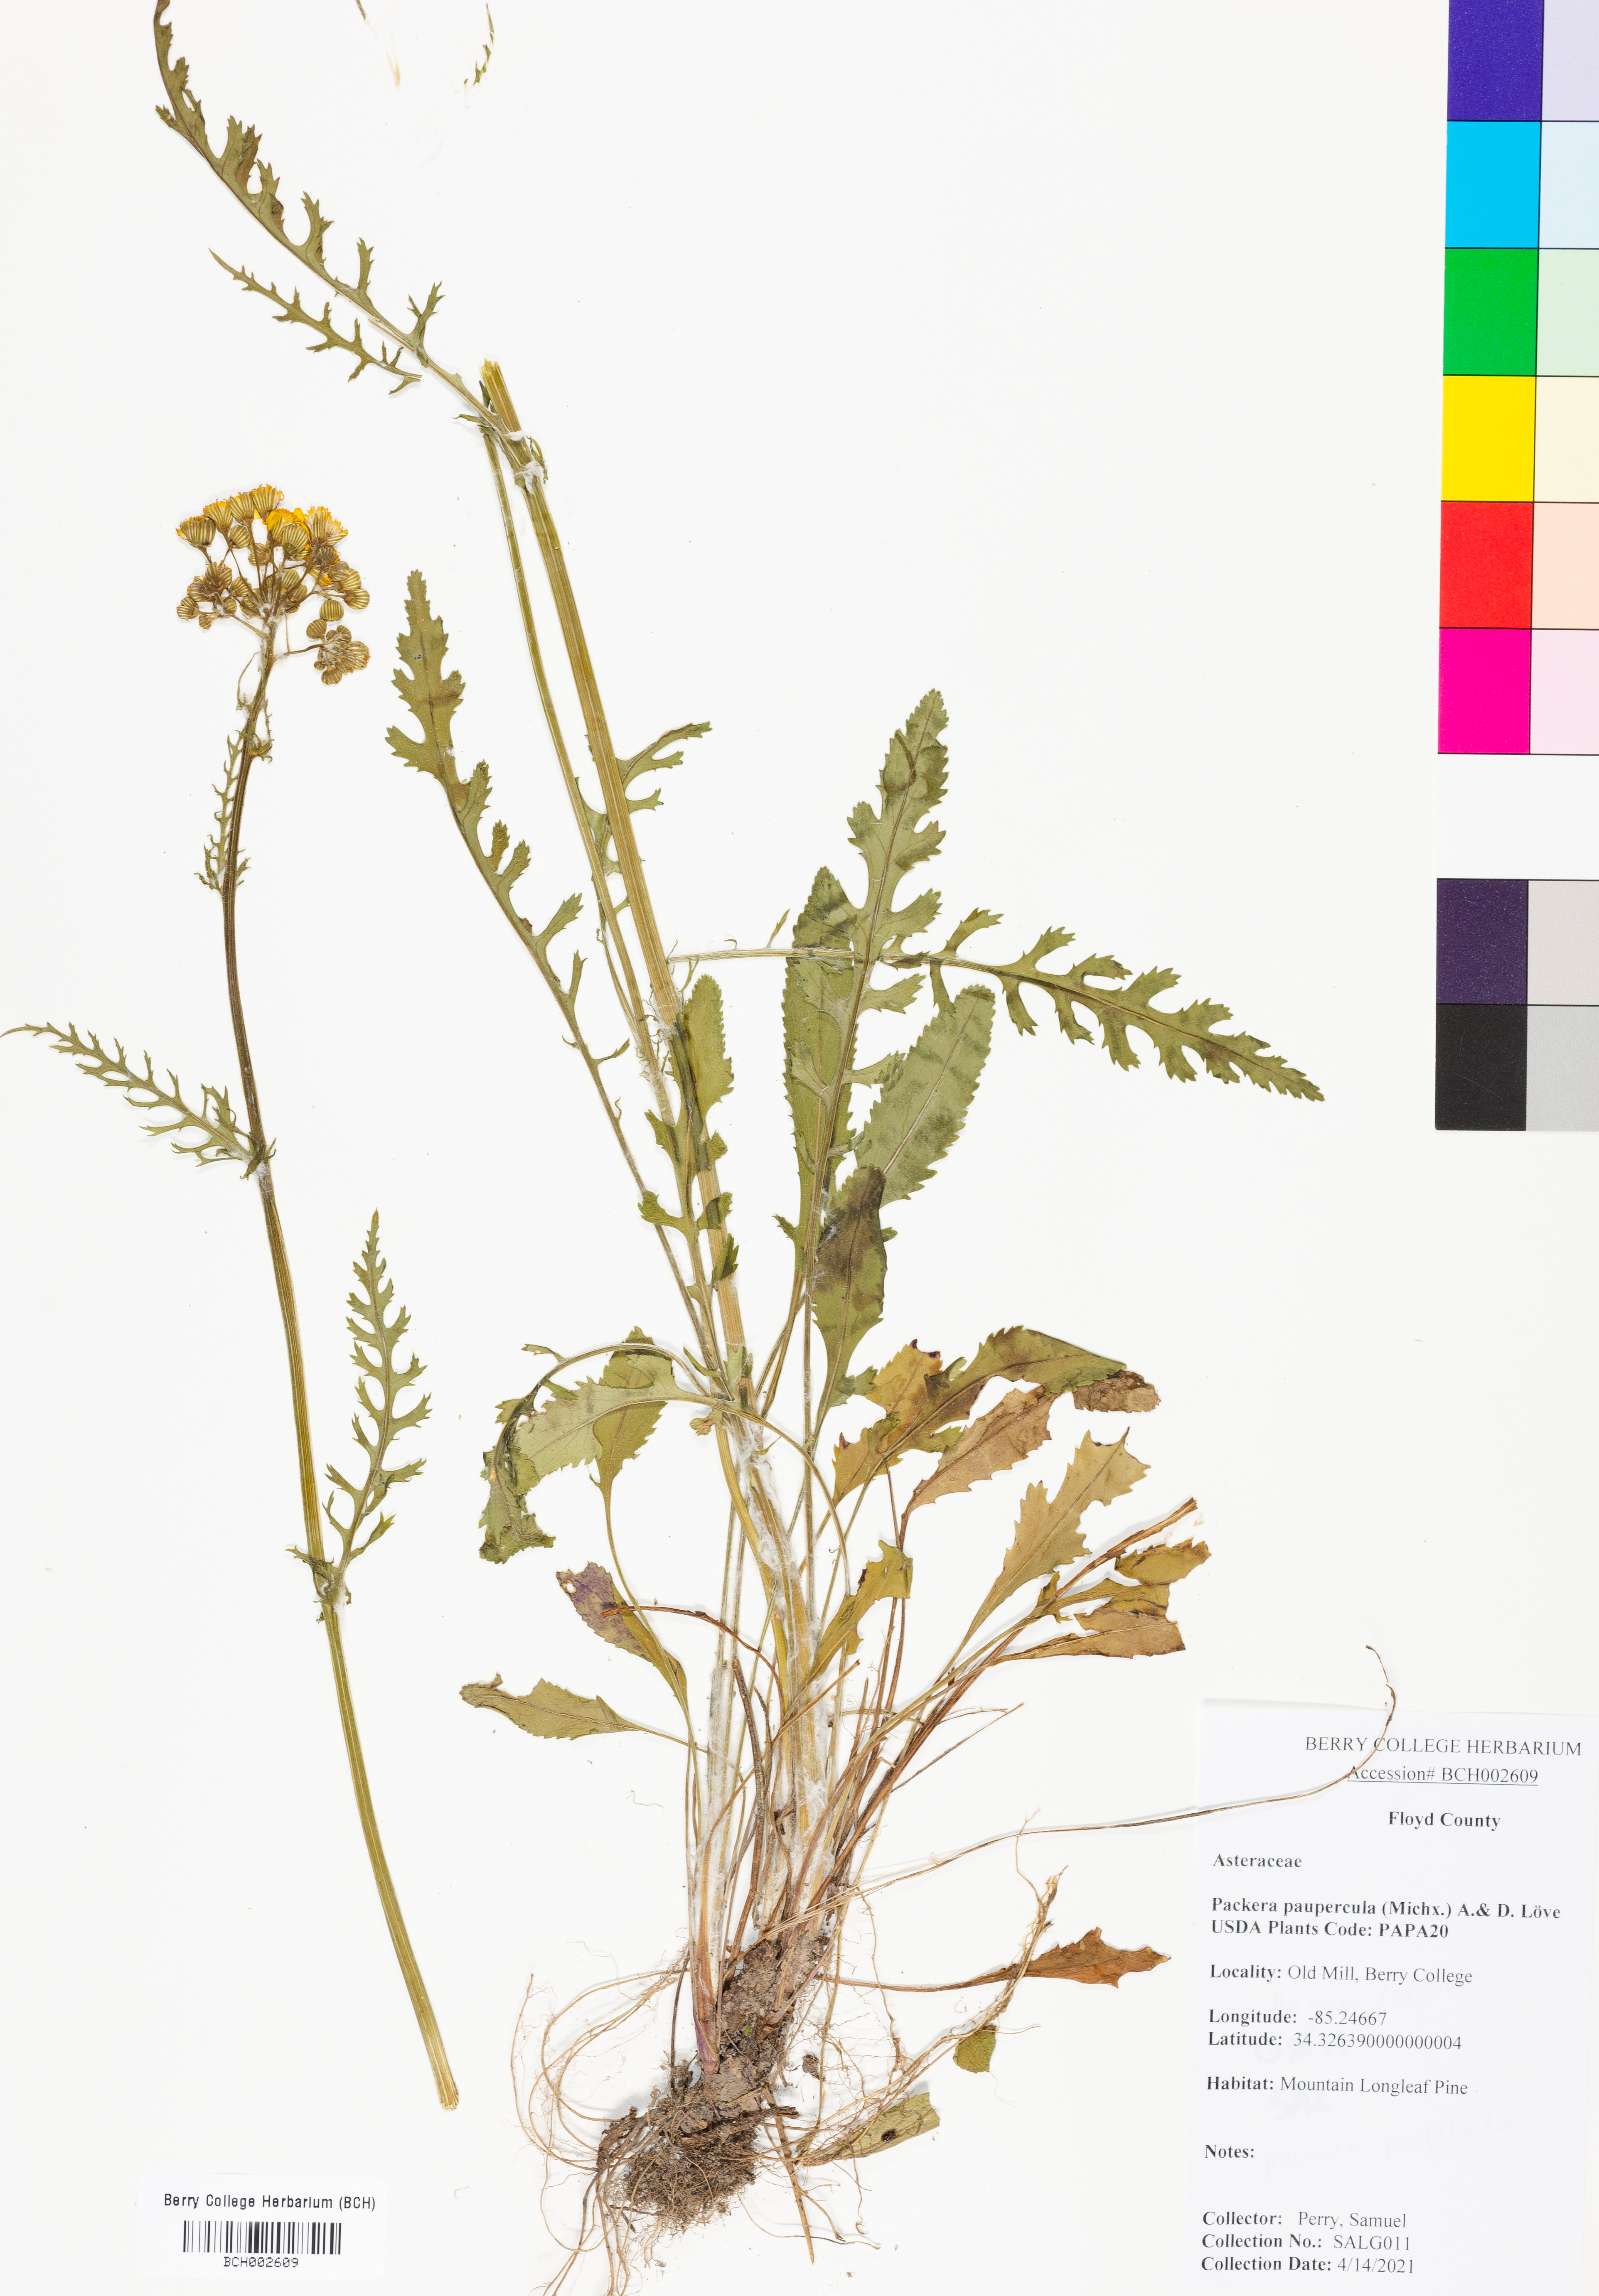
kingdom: Plantae
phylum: Tracheophyta
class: Magnoliopsida
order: Asterales
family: Asteraceae
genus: Packera
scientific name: Packera paupercula
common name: Balsam groundsel
